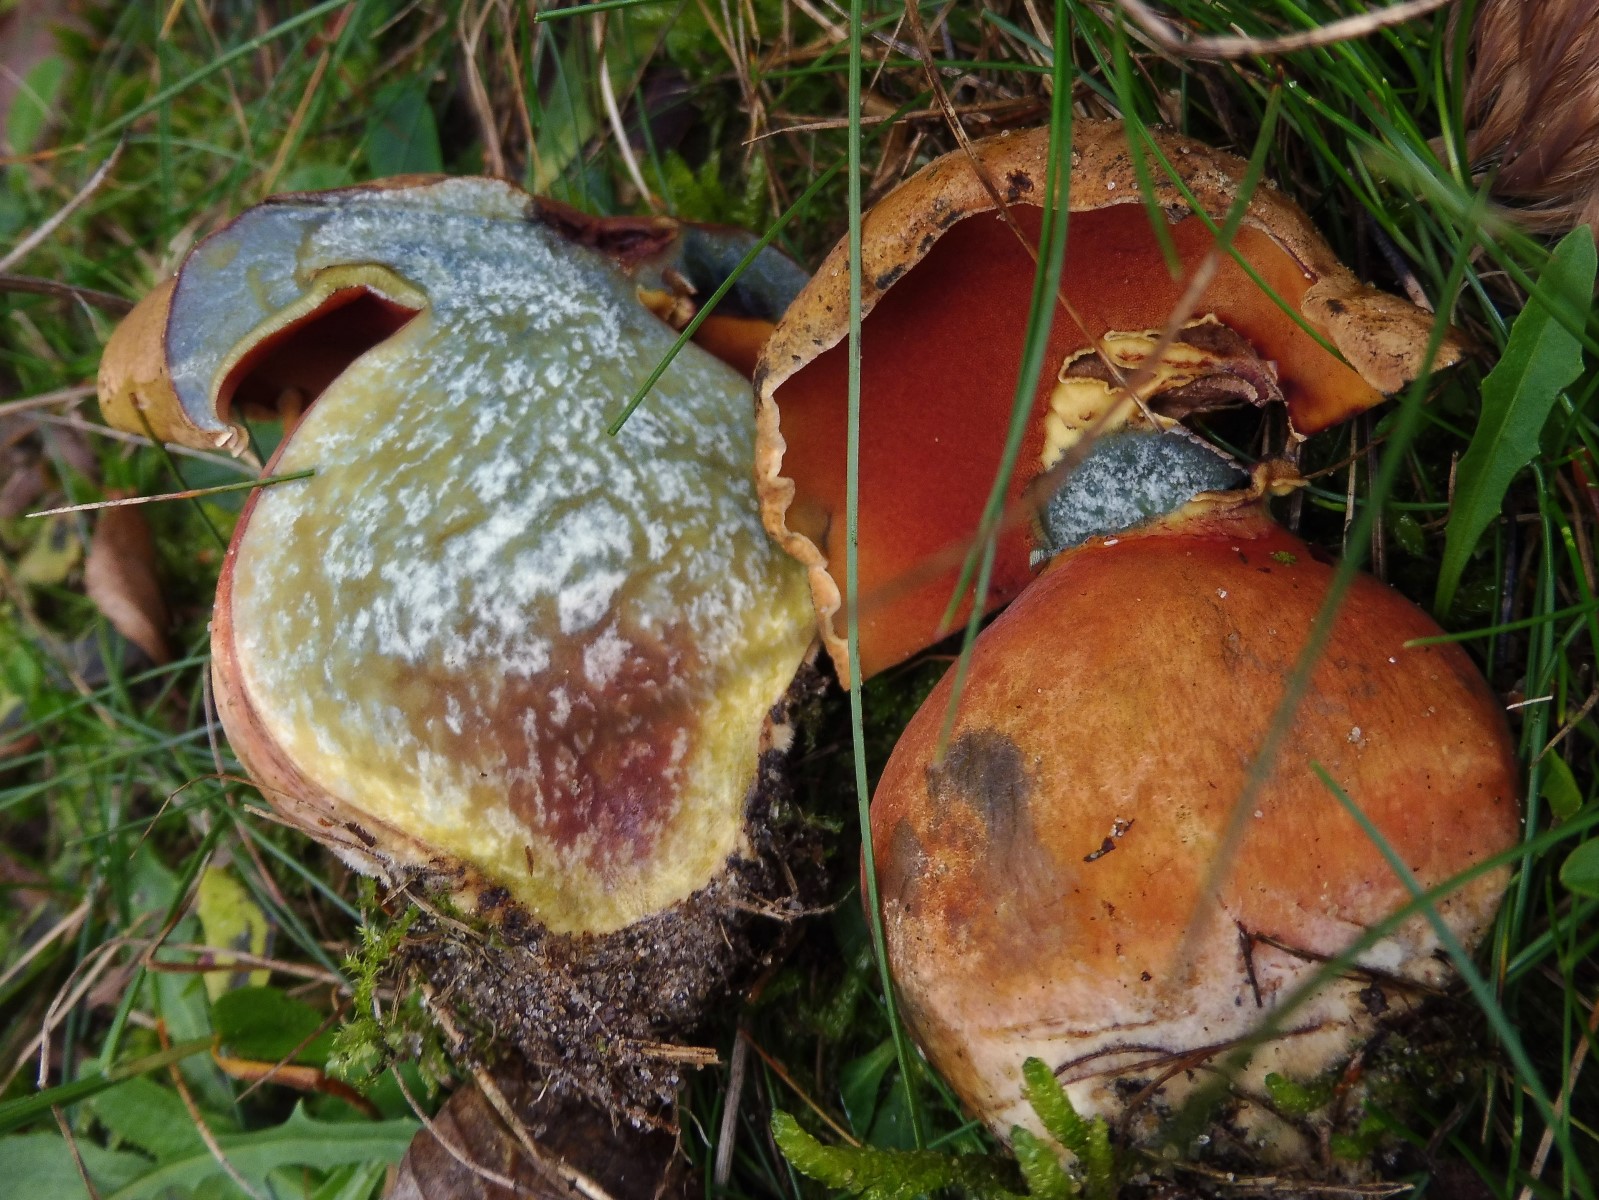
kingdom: Fungi
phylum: Basidiomycota
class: Agaricomycetes
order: Boletales
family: Boletaceae
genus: Neoboletus
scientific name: Neoboletus erythropus
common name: punktstokket indigorørhat
